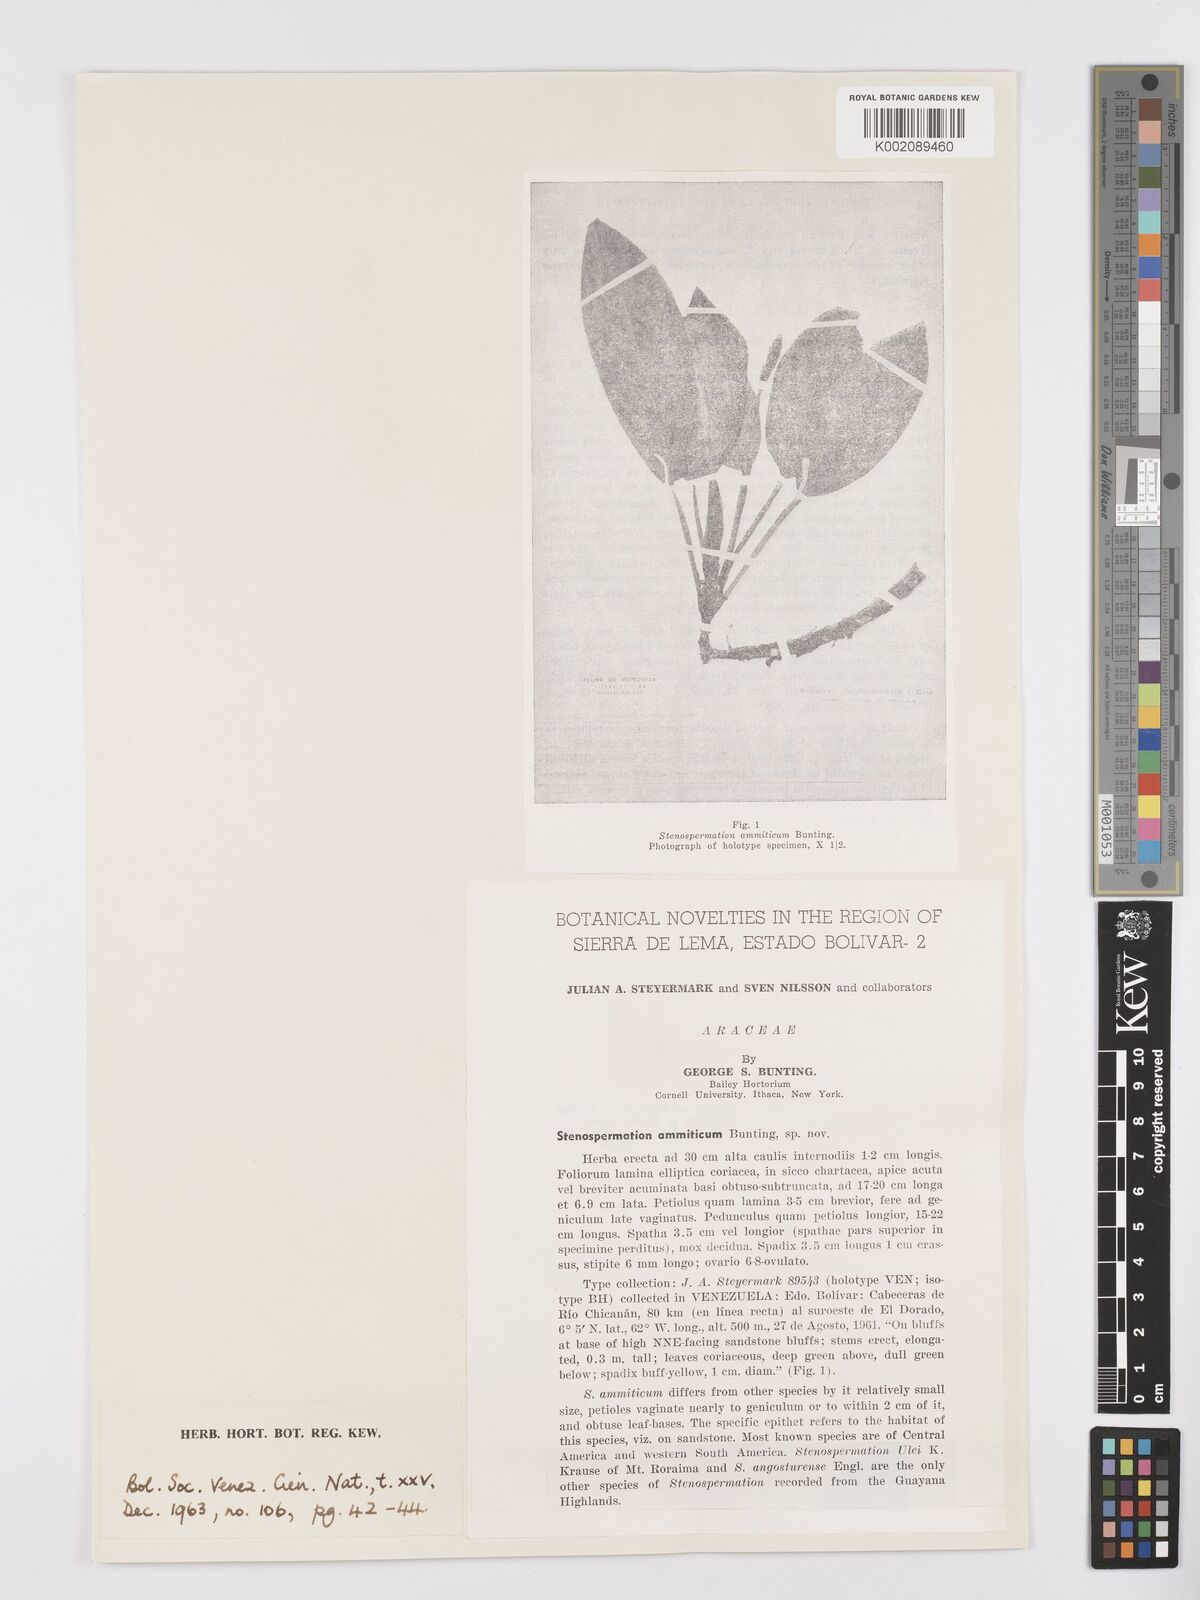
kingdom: Plantae
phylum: Tracheophyta
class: Liliopsida
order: Alismatales
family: Araceae
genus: Stenospermation
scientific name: Stenospermation ammiticum
